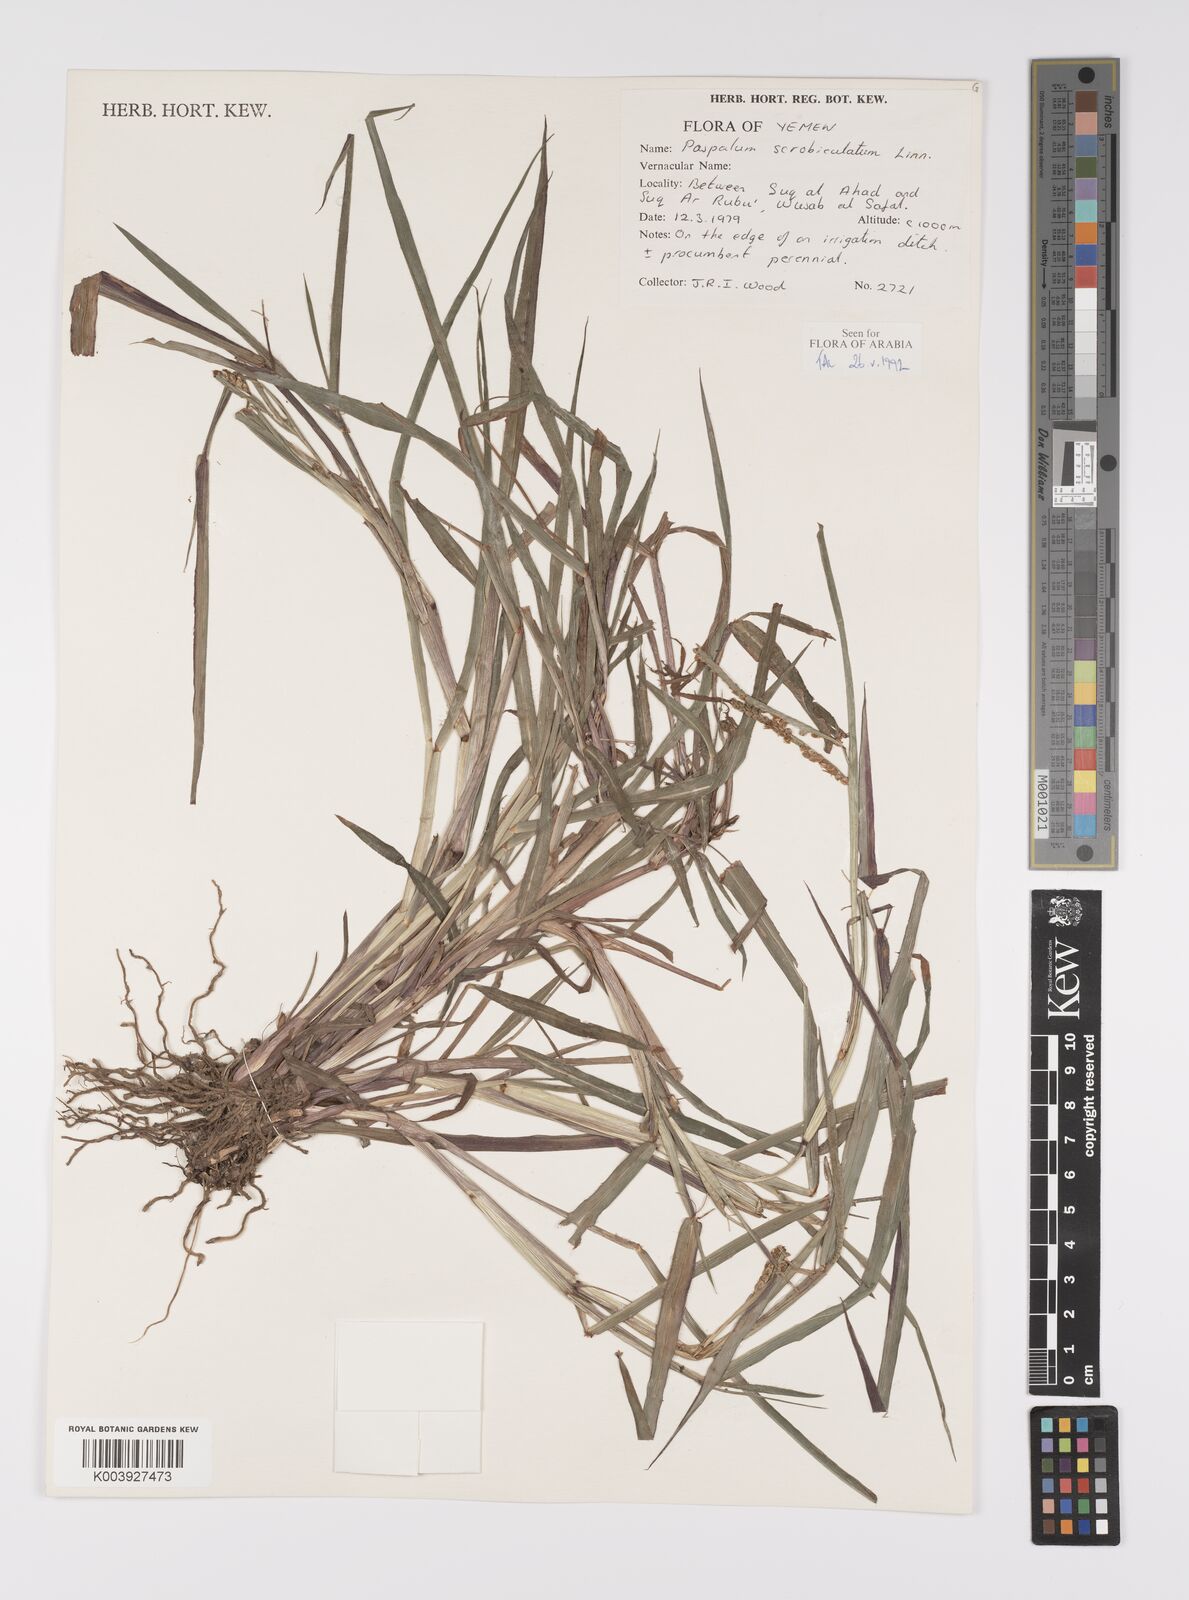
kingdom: Plantae
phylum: Tracheophyta
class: Liliopsida
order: Poales
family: Poaceae
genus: Paspalum
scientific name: Paspalum scrobiculatum
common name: Kodo millet
